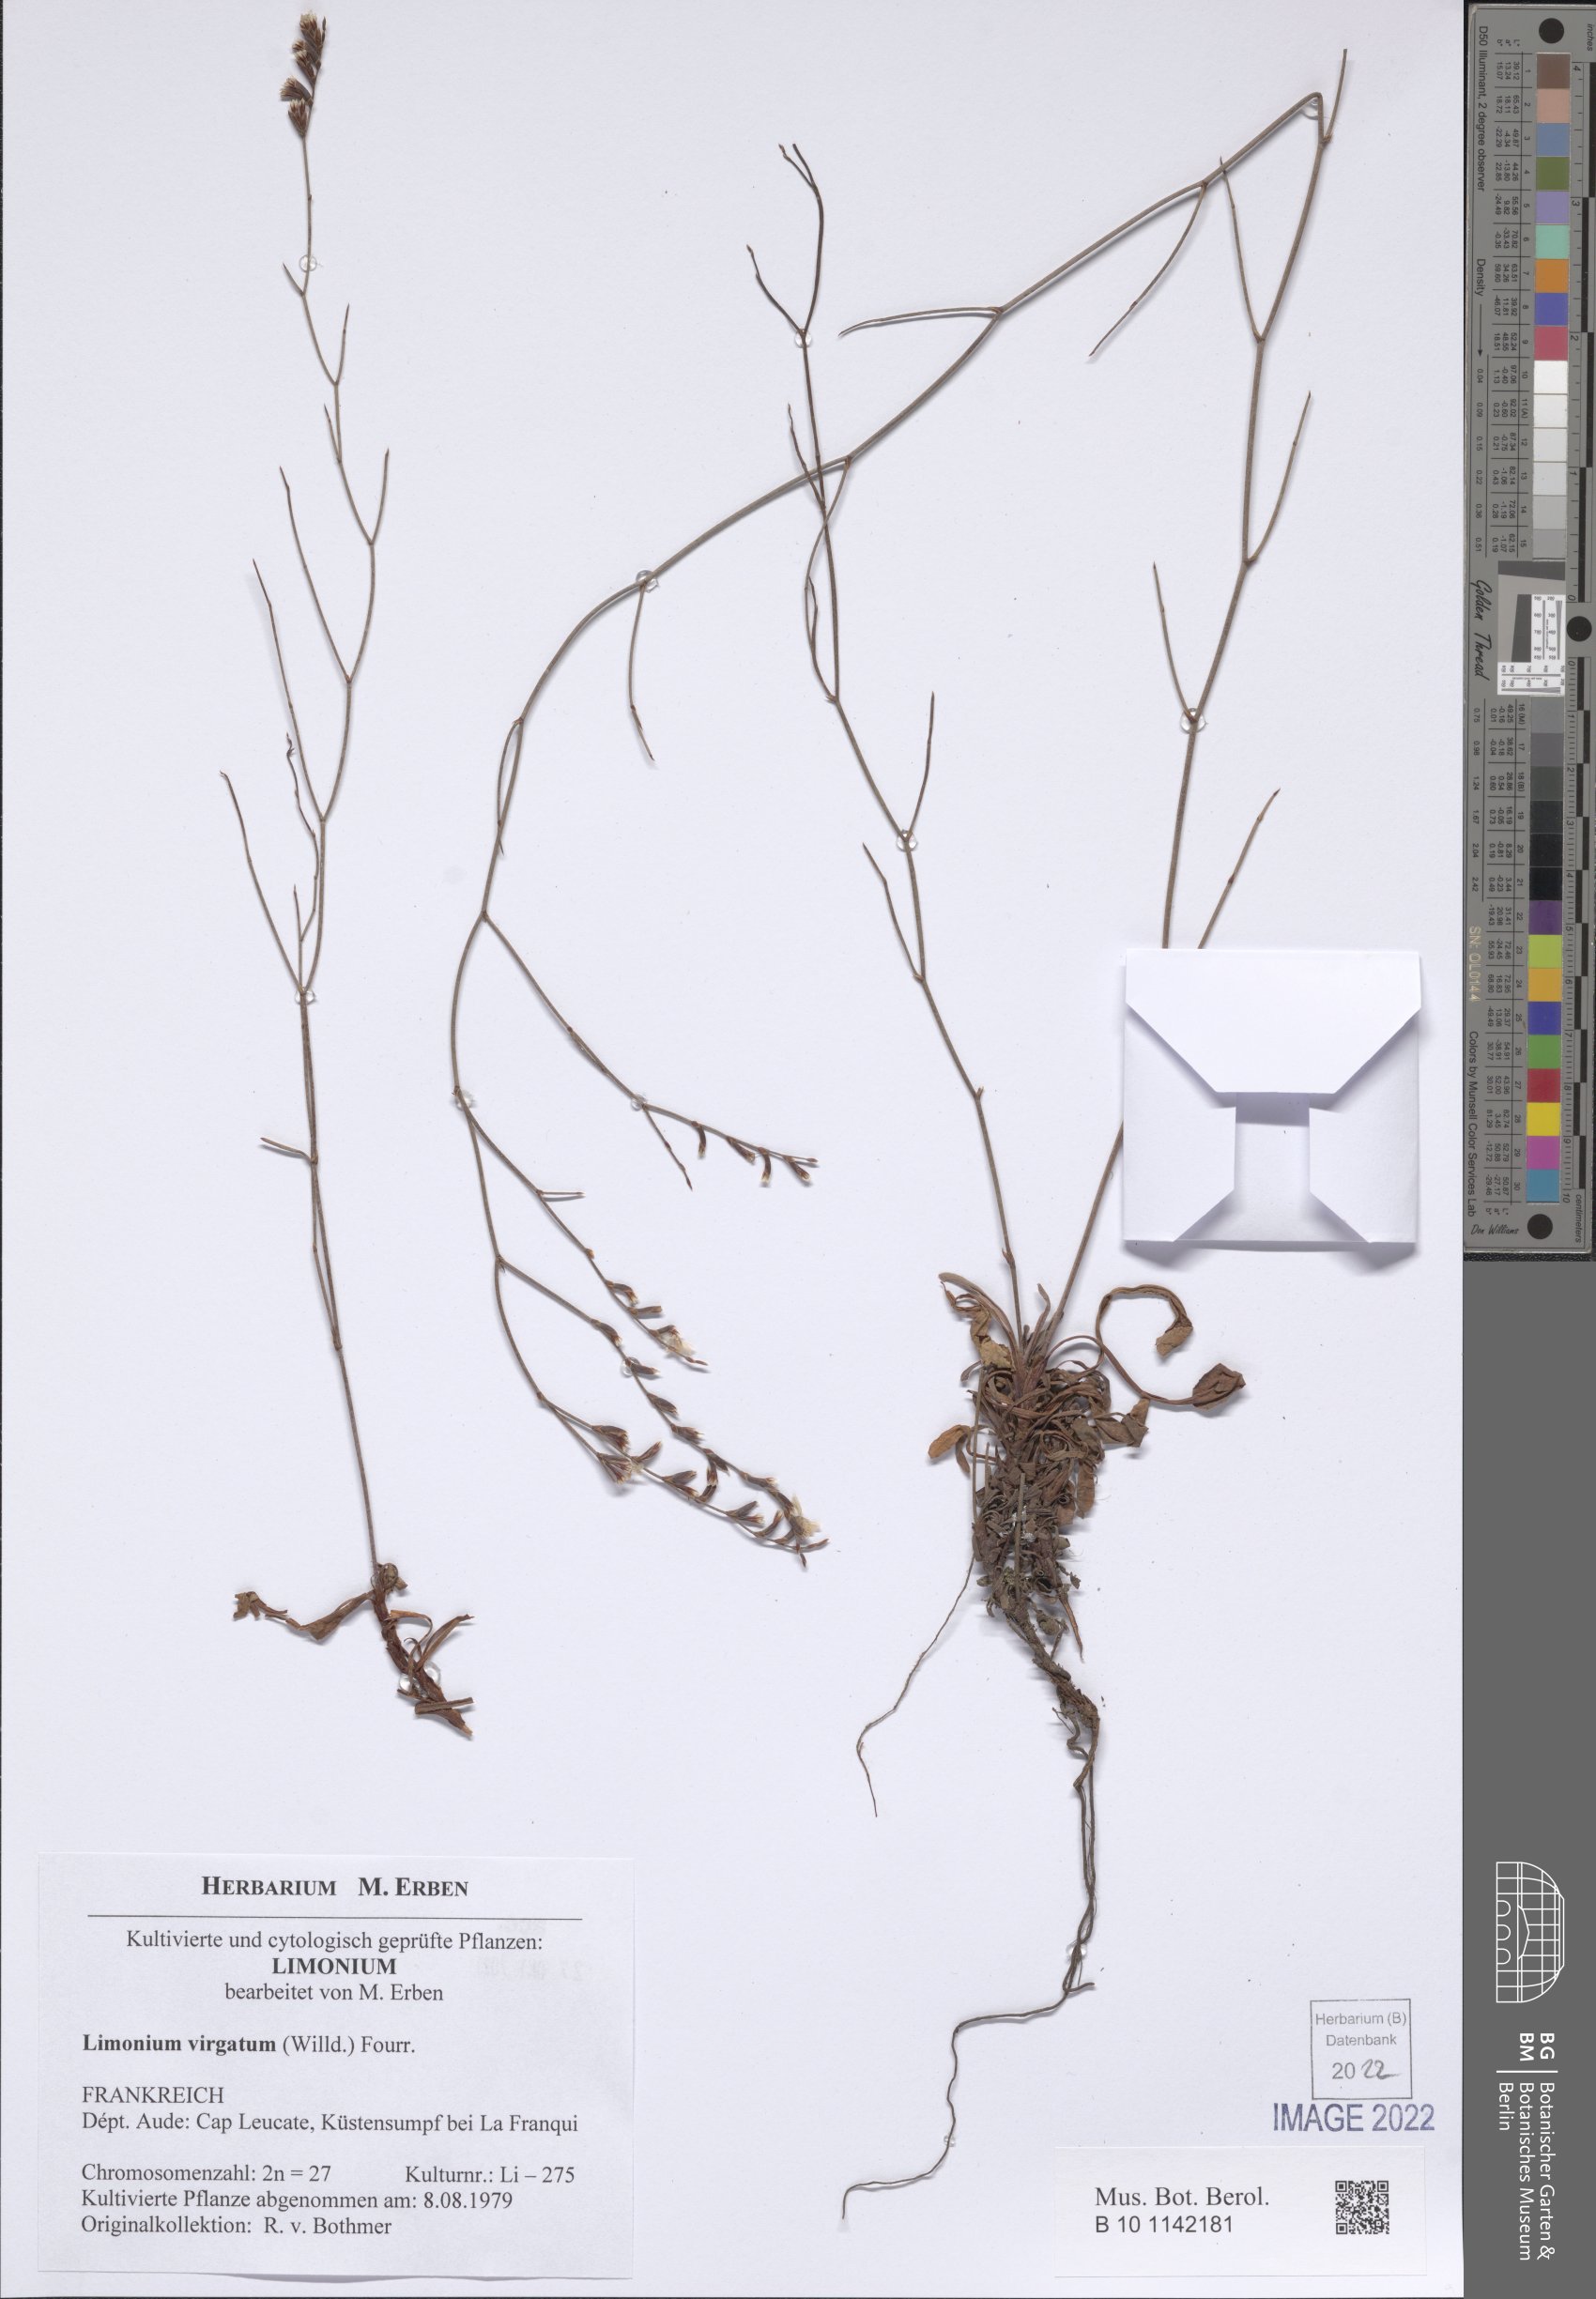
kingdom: Plantae
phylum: Tracheophyta
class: Magnoliopsida
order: Caryophyllales
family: Plumbaginaceae
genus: Limonium
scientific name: Limonium virgatum
